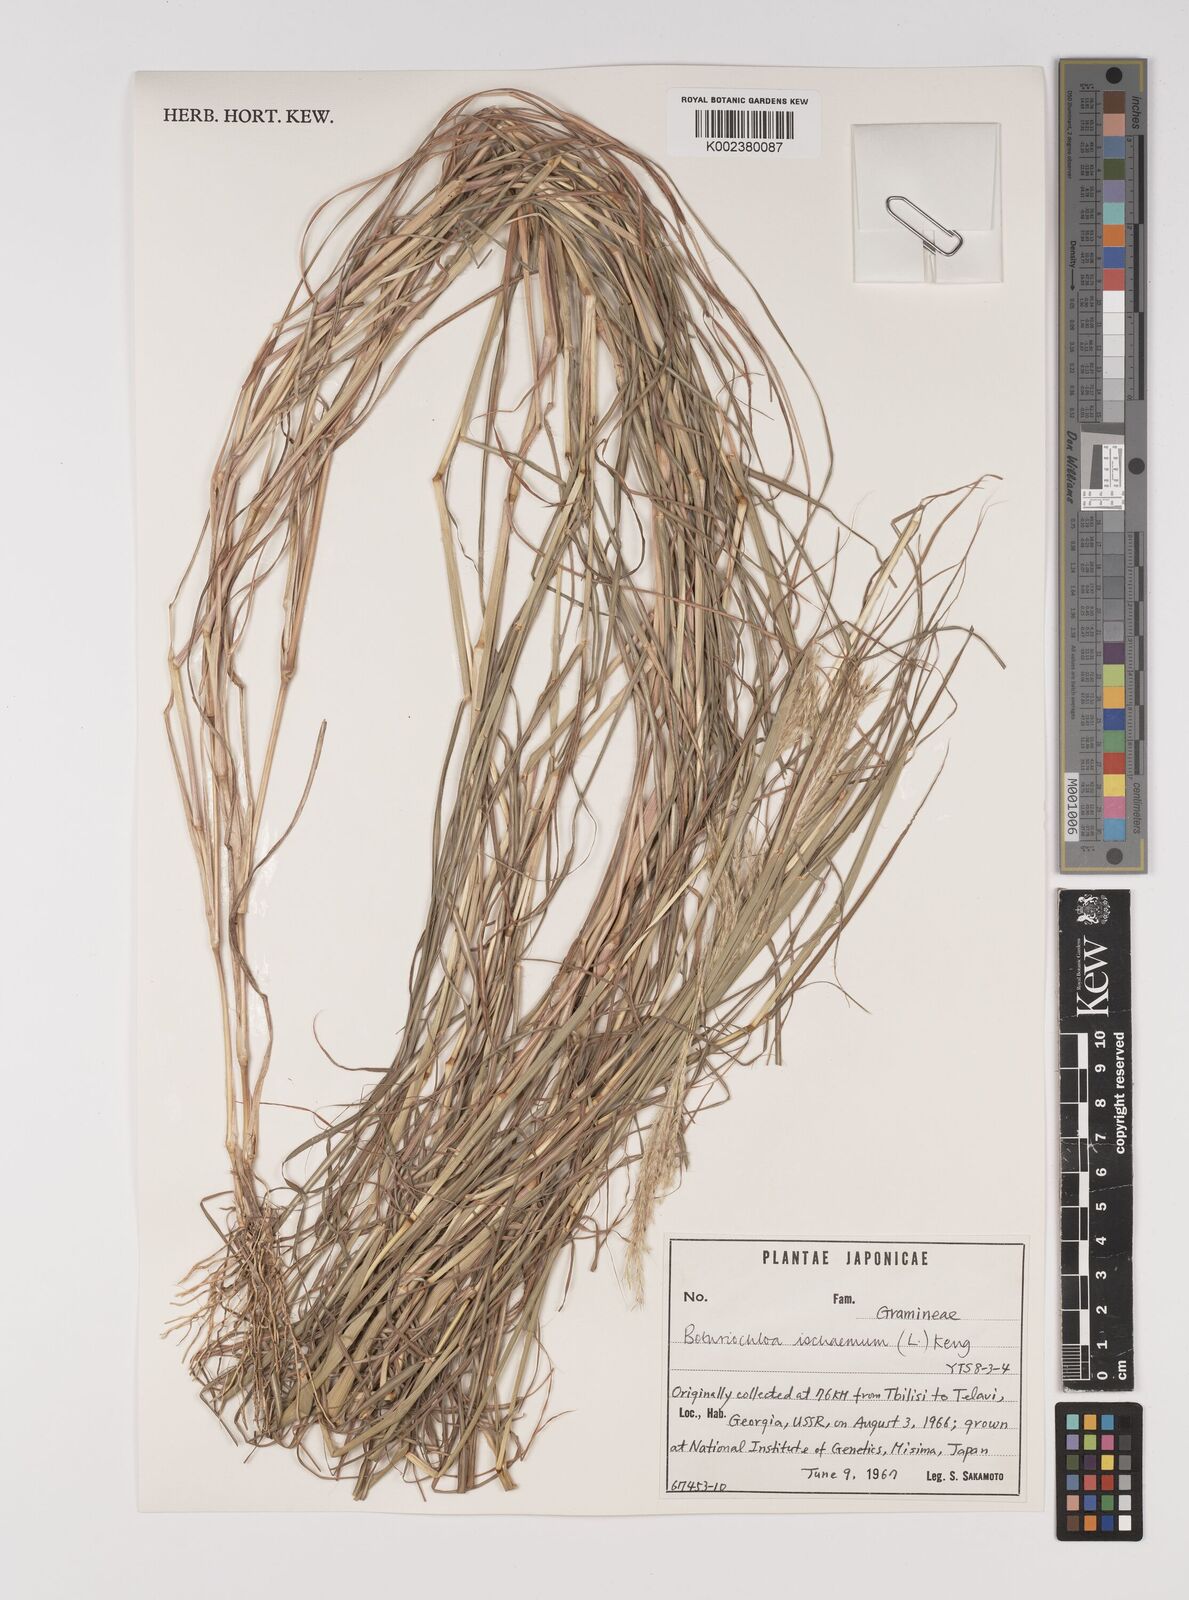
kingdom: Plantae
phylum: Tracheophyta
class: Liliopsida
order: Poales
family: Poaceae
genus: Bothriochloa
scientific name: Bothriochloa ischaemum
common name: Yellow bluestem
